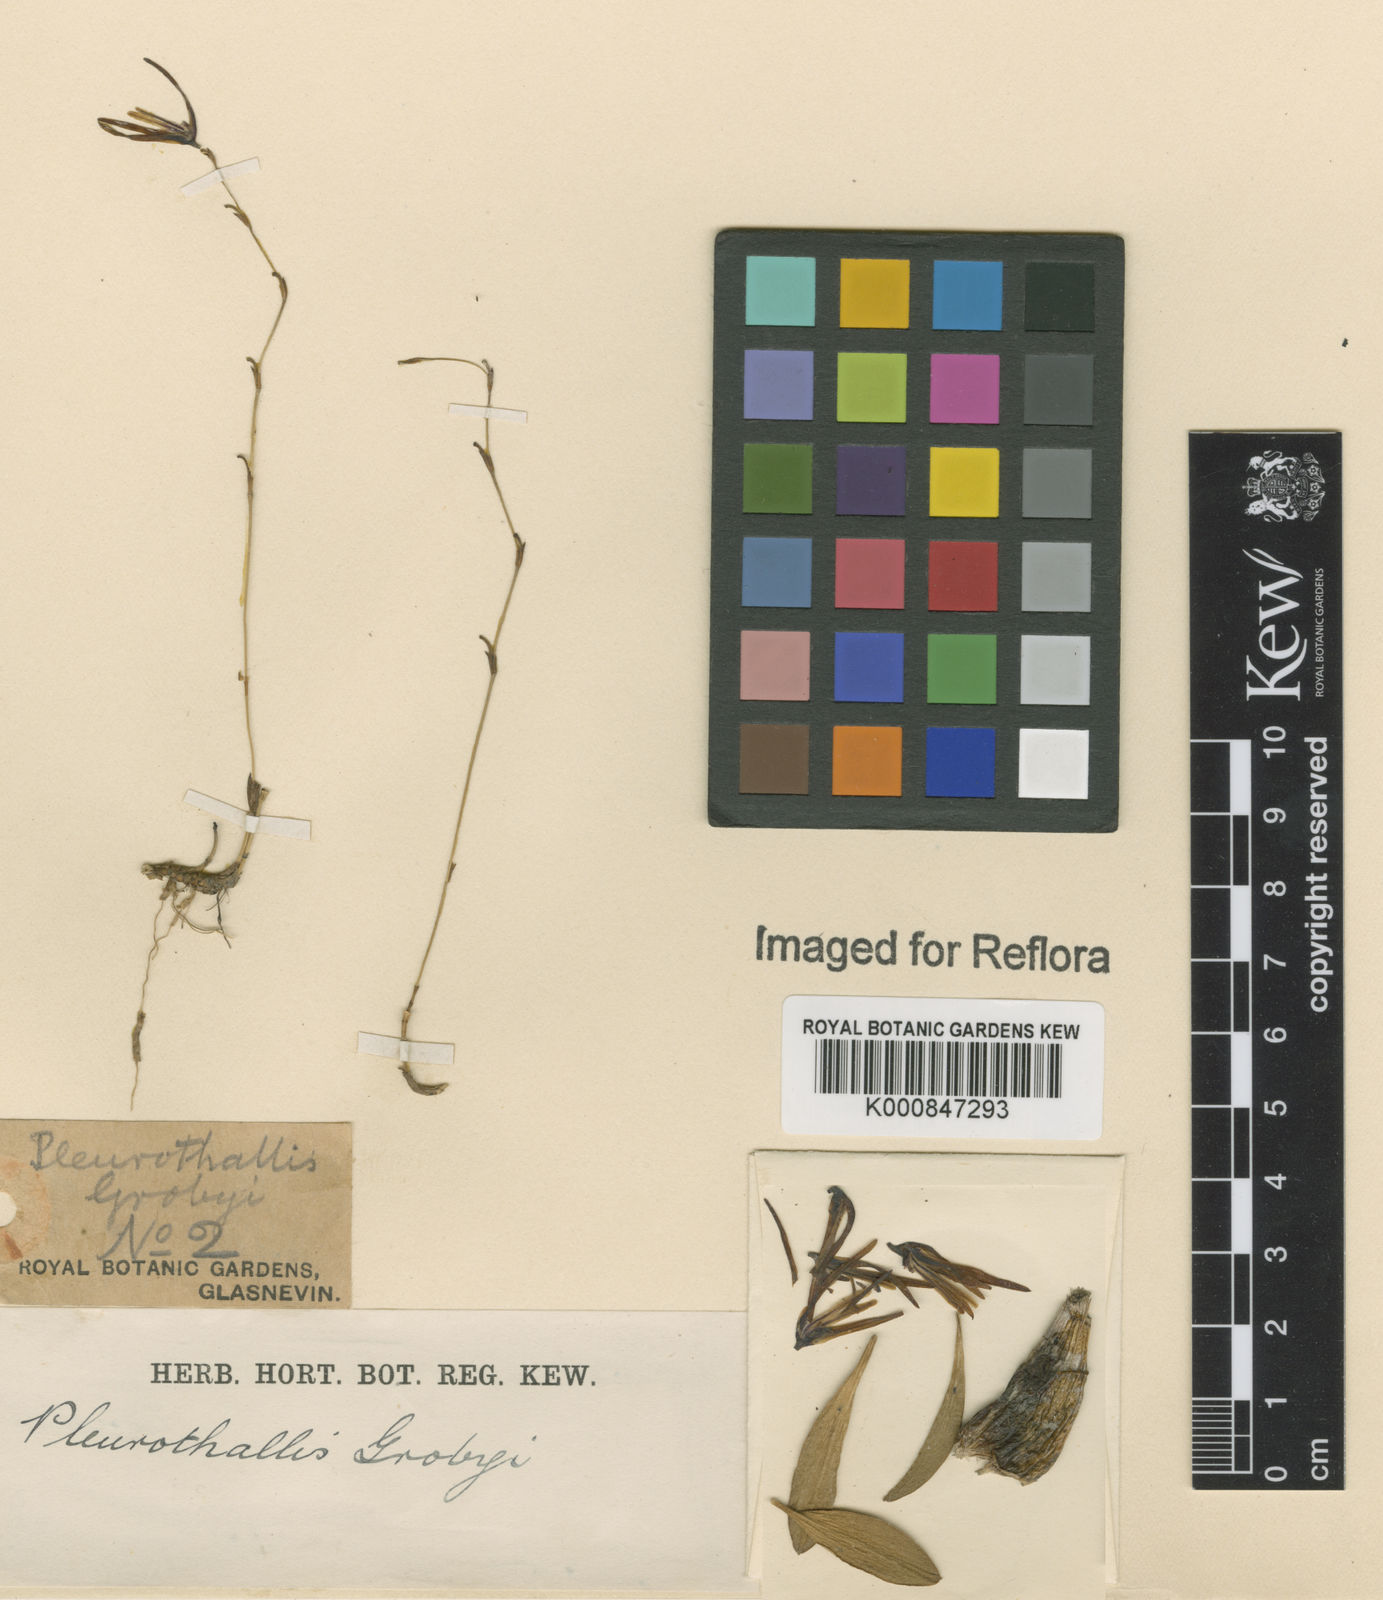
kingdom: Plantae
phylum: Tracheophyta
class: Liliopsida
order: Asparagales
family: Orchidaceae
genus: Anathallis
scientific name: Anathallis
